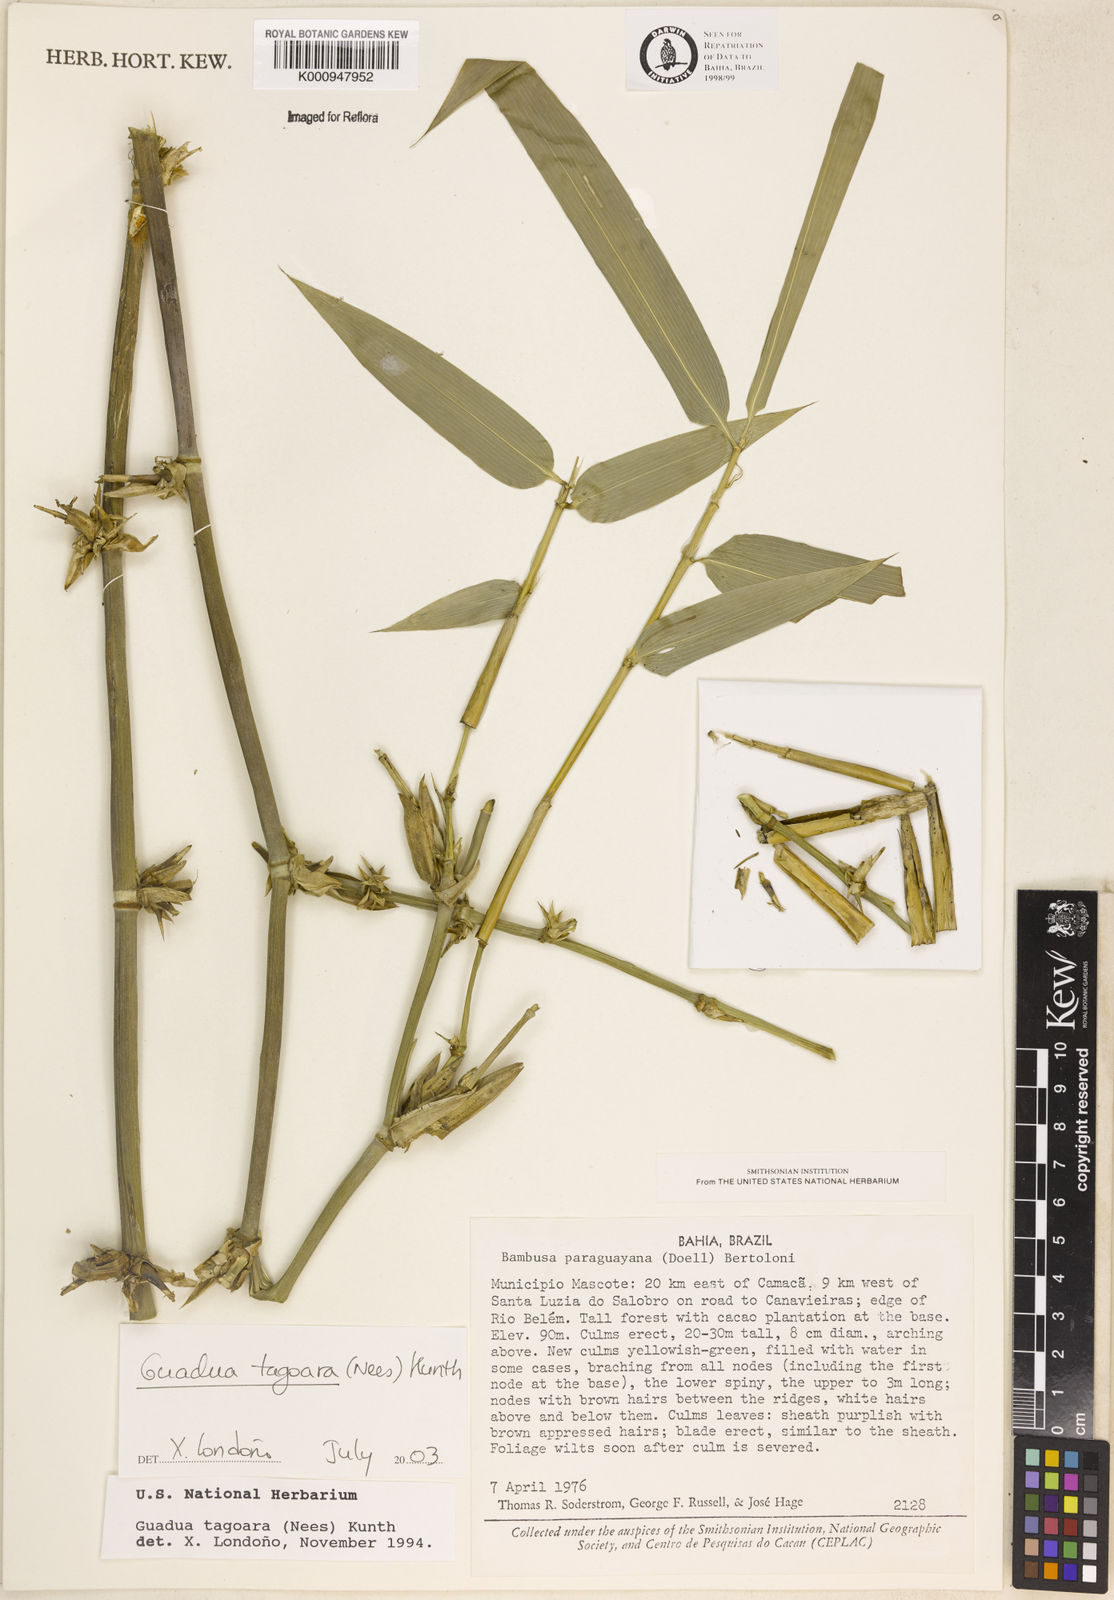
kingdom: Plantae
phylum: Tracheophyta
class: Liliopsida
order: Poales
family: Poaceae
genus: Guadua
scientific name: Guadua tagoara
